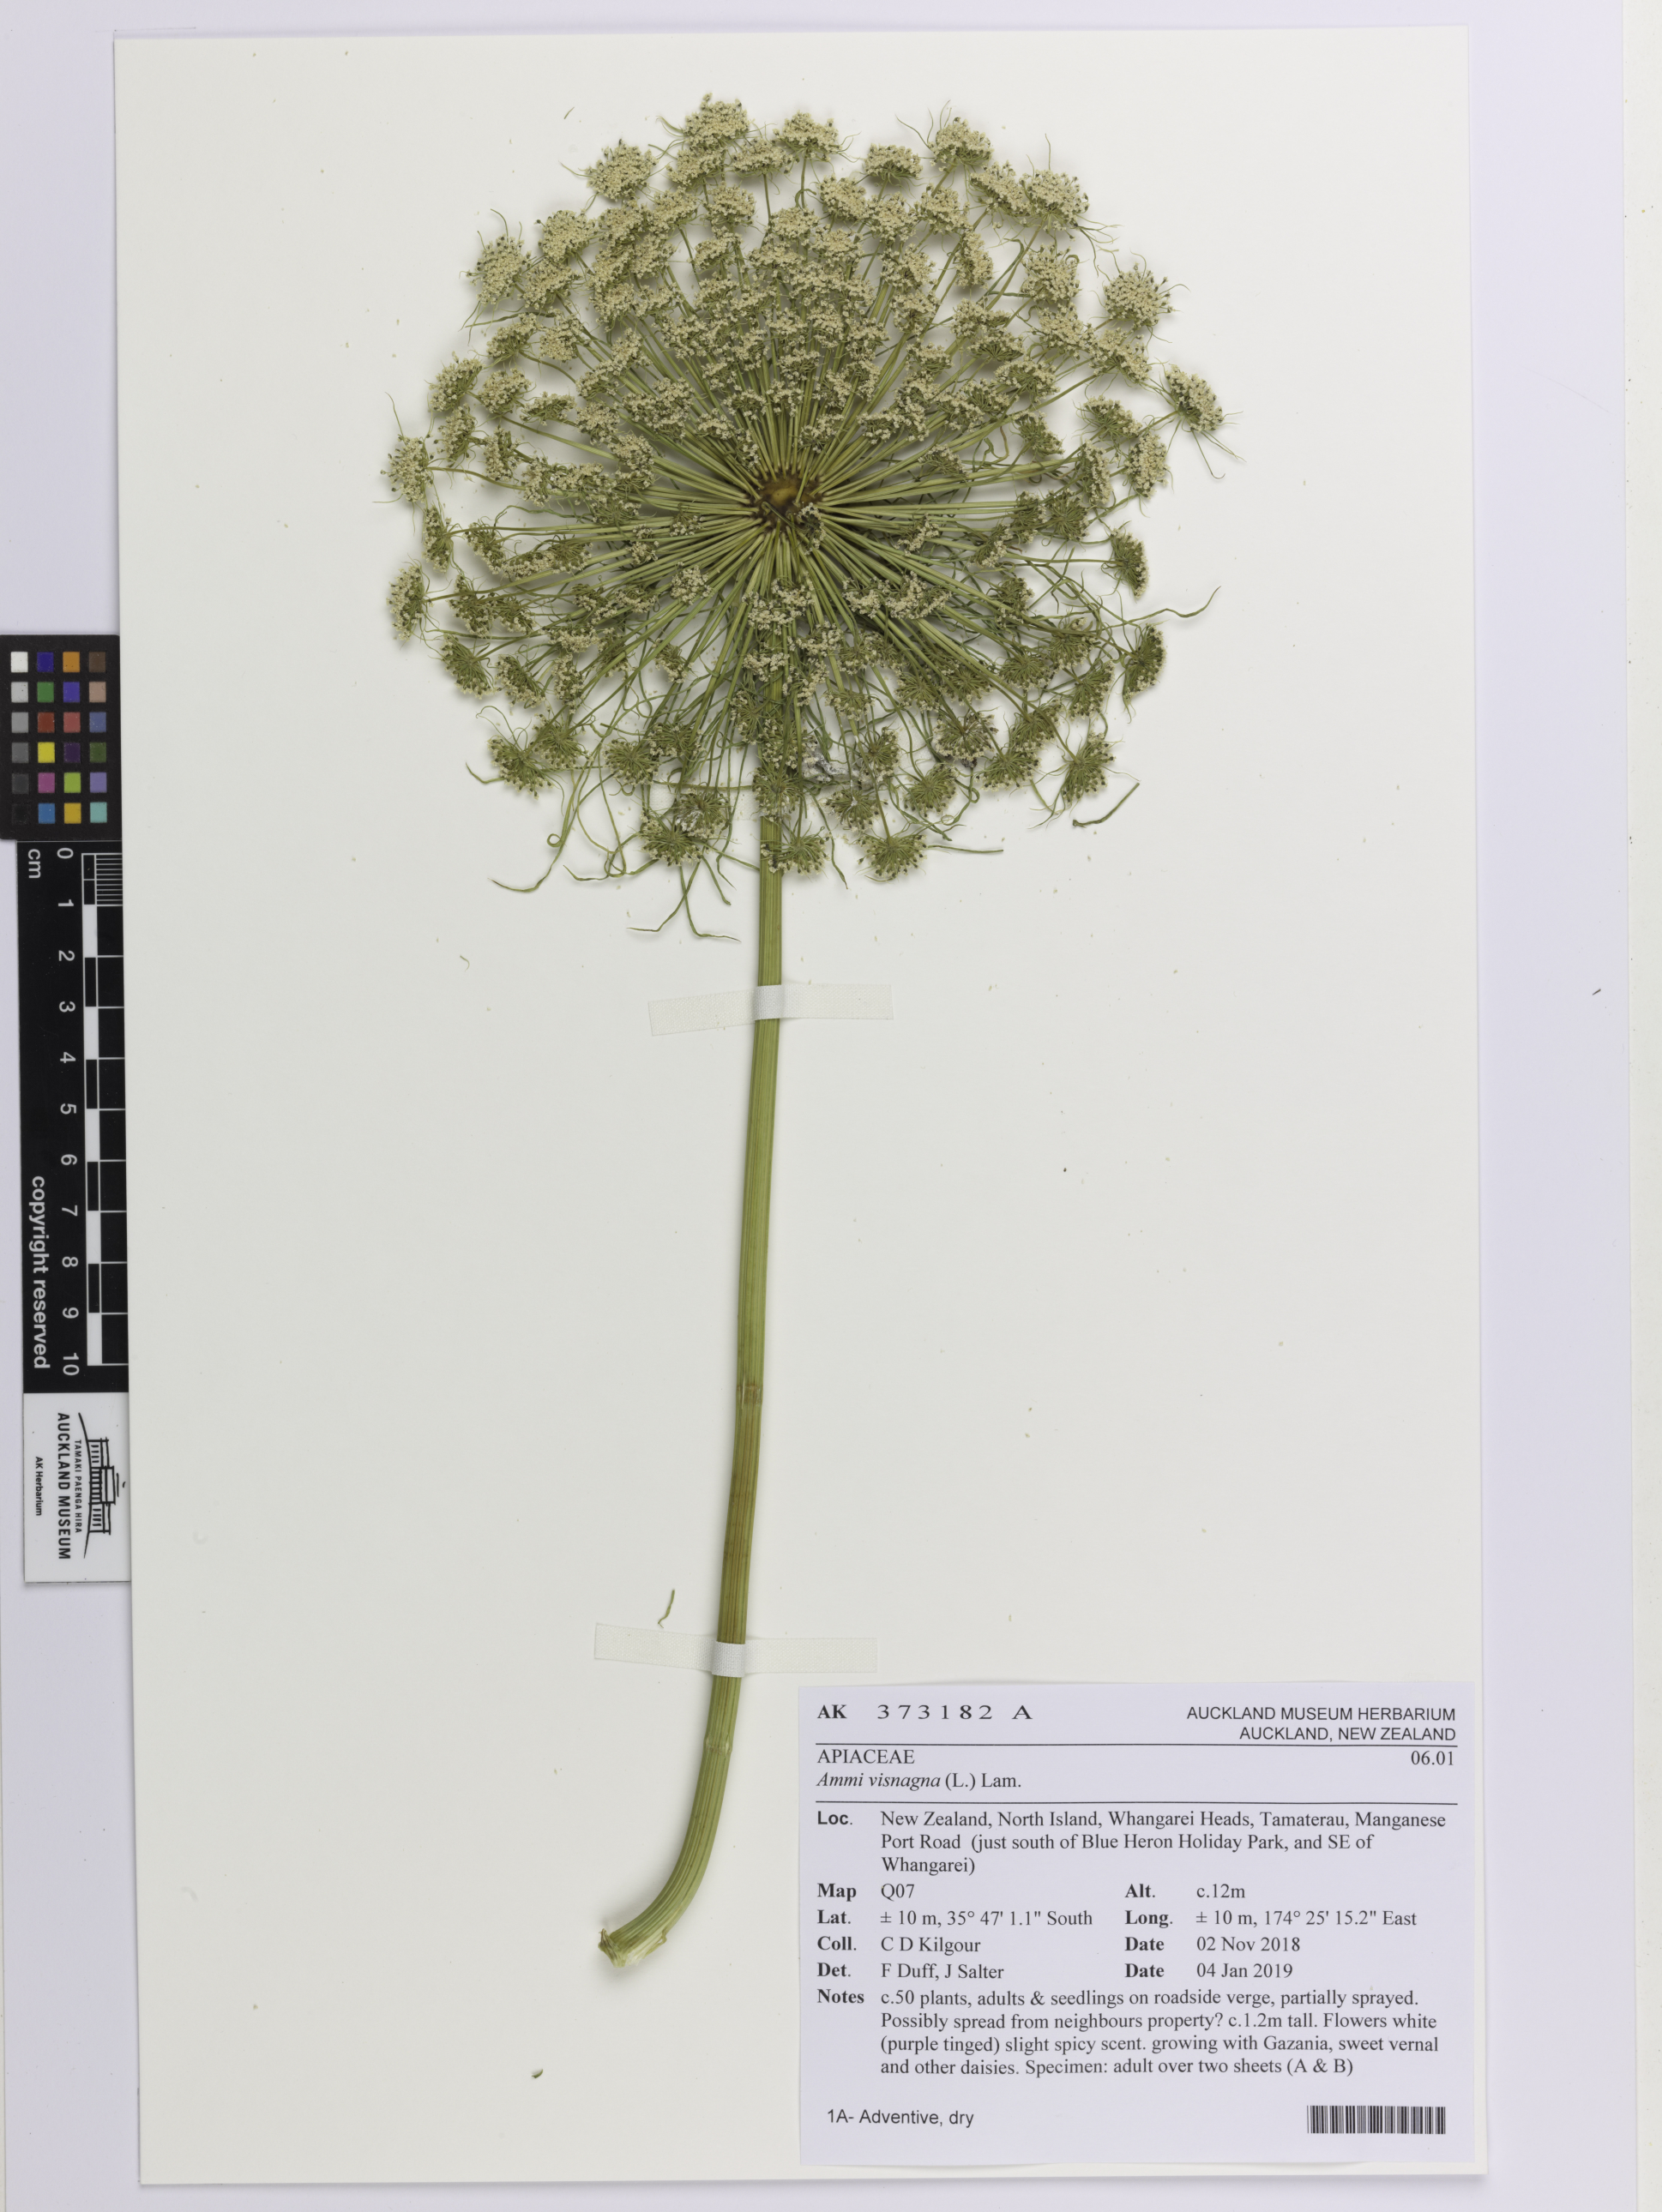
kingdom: Plantae
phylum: Tracheophyta
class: Magnoliopsida
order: Apiales
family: Apiaceae
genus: Visnaga
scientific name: Visnaga daucoides
